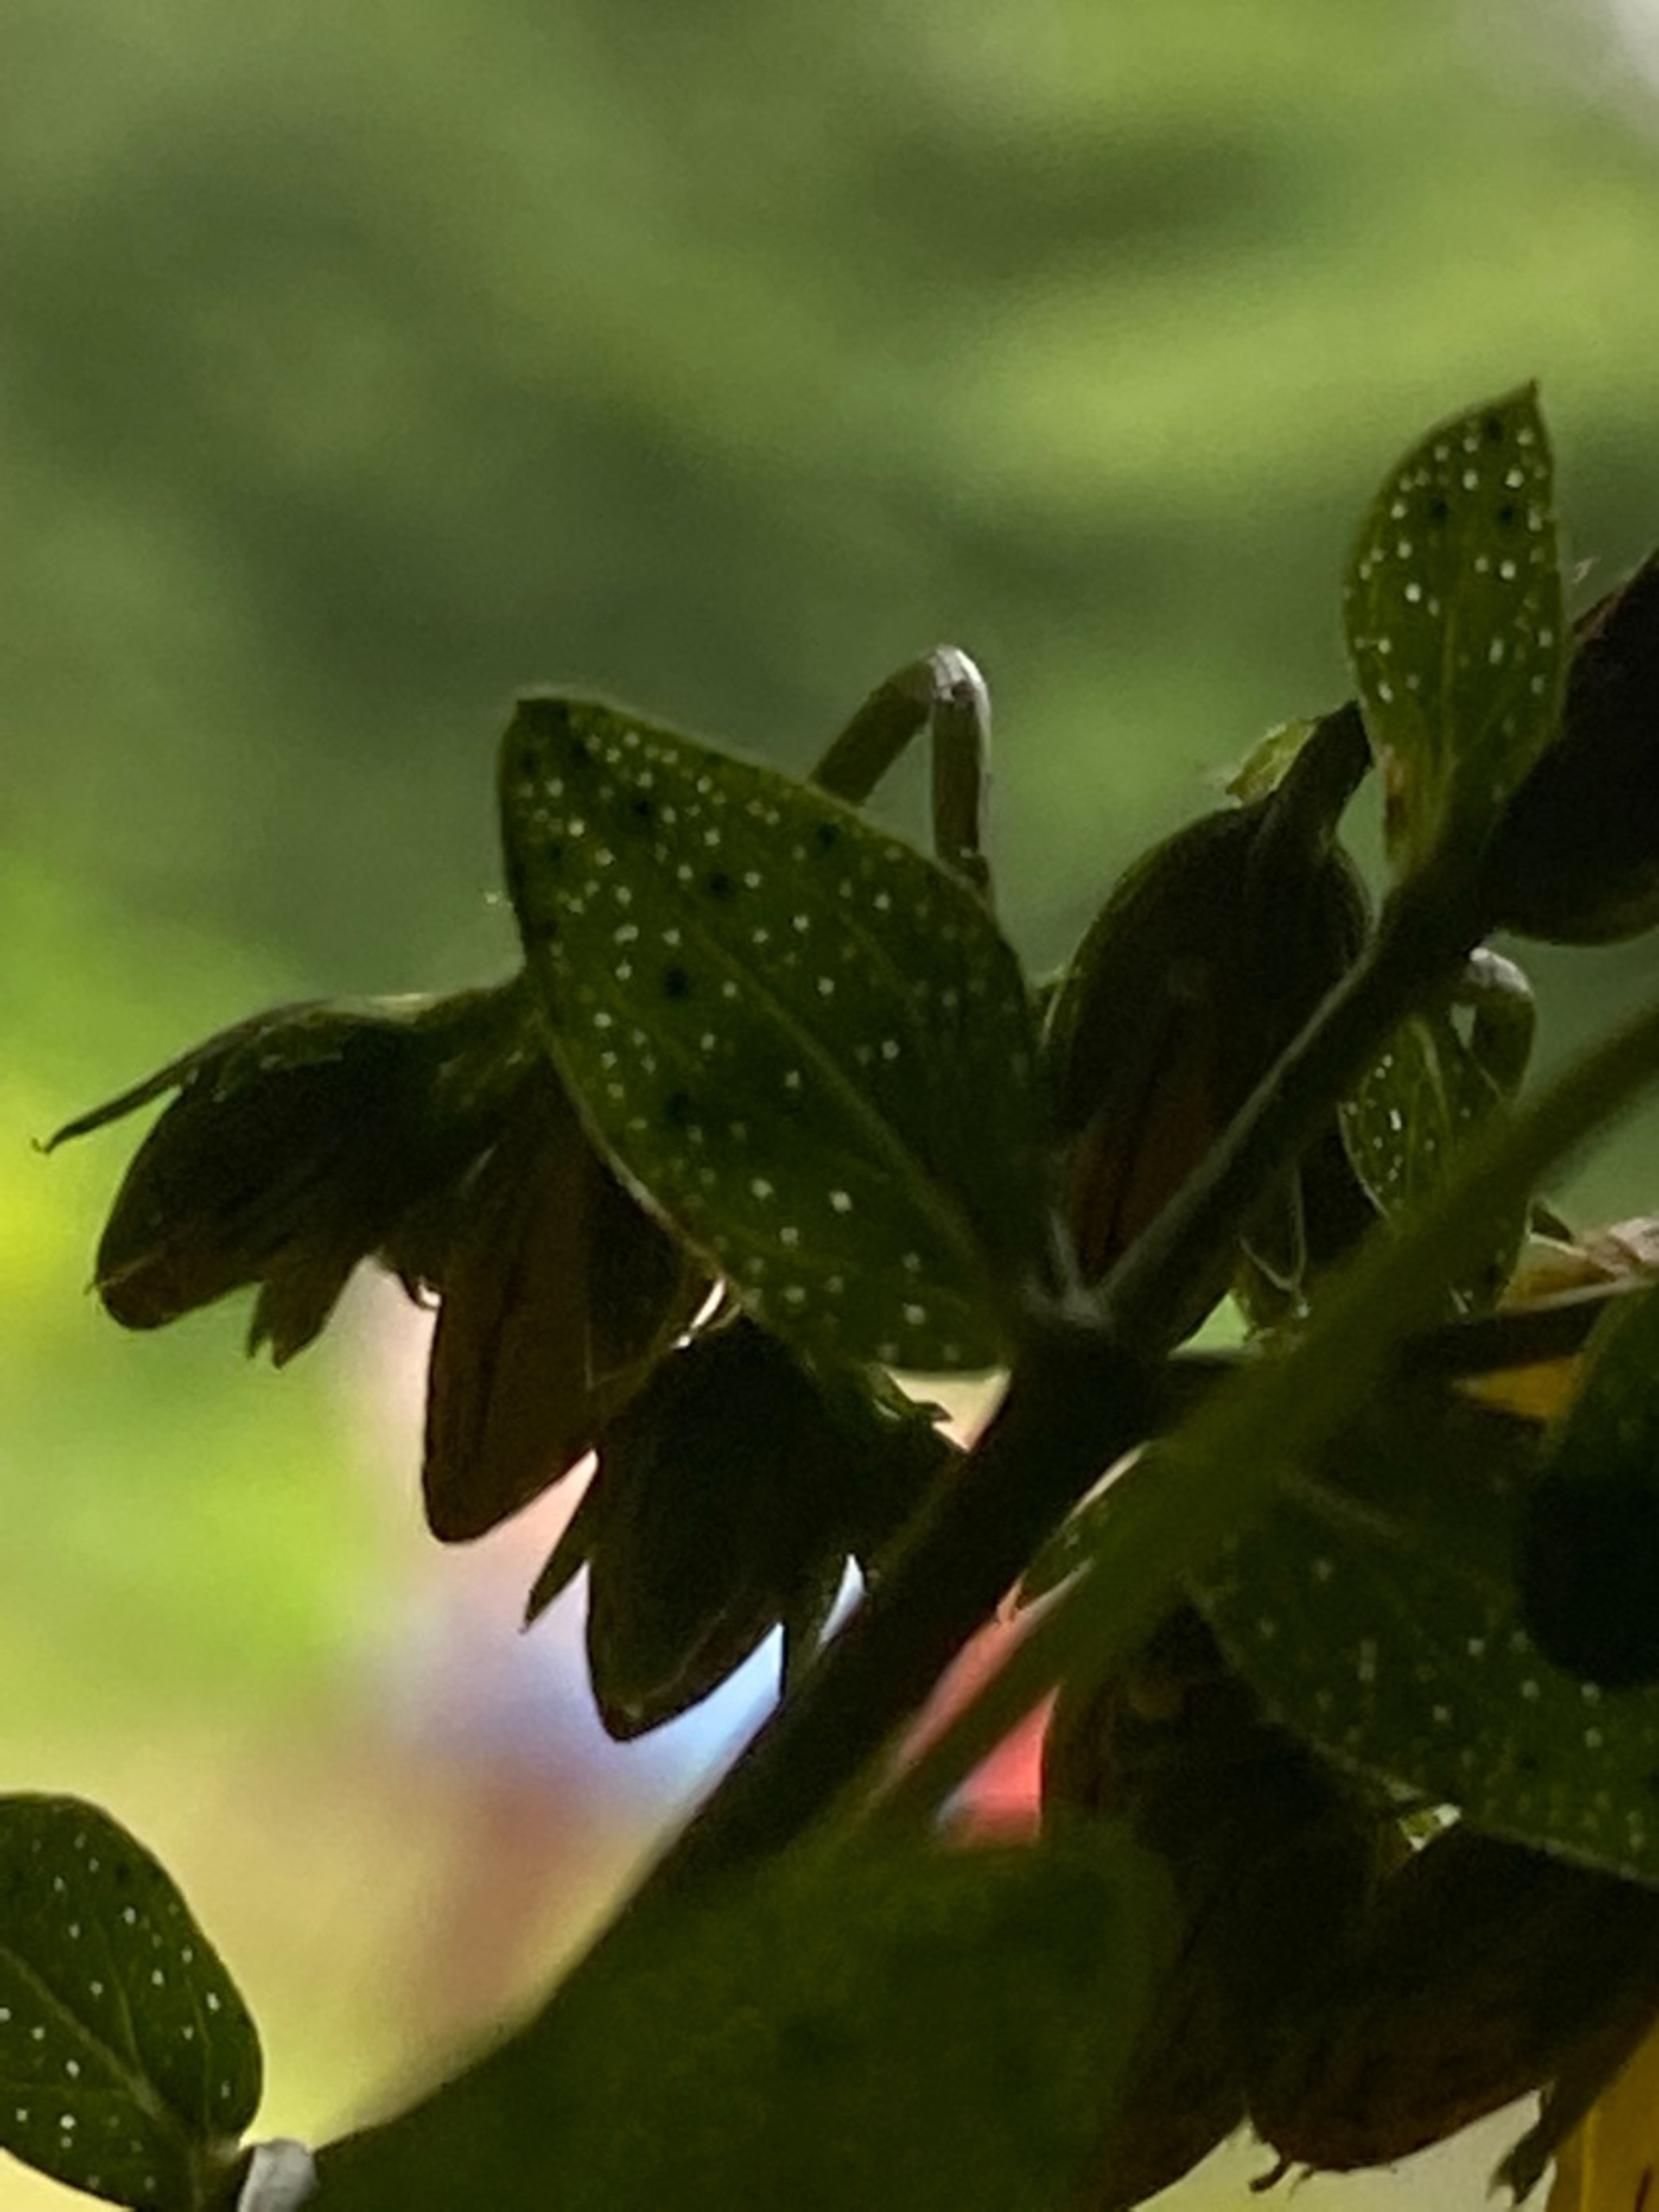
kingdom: Plantae
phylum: Tracheophyta
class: Magnoliopsida
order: Malpighiales
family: Hypericaceae
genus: Hypericum
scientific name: Hypericum perforatum
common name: Prikbladet perikon
